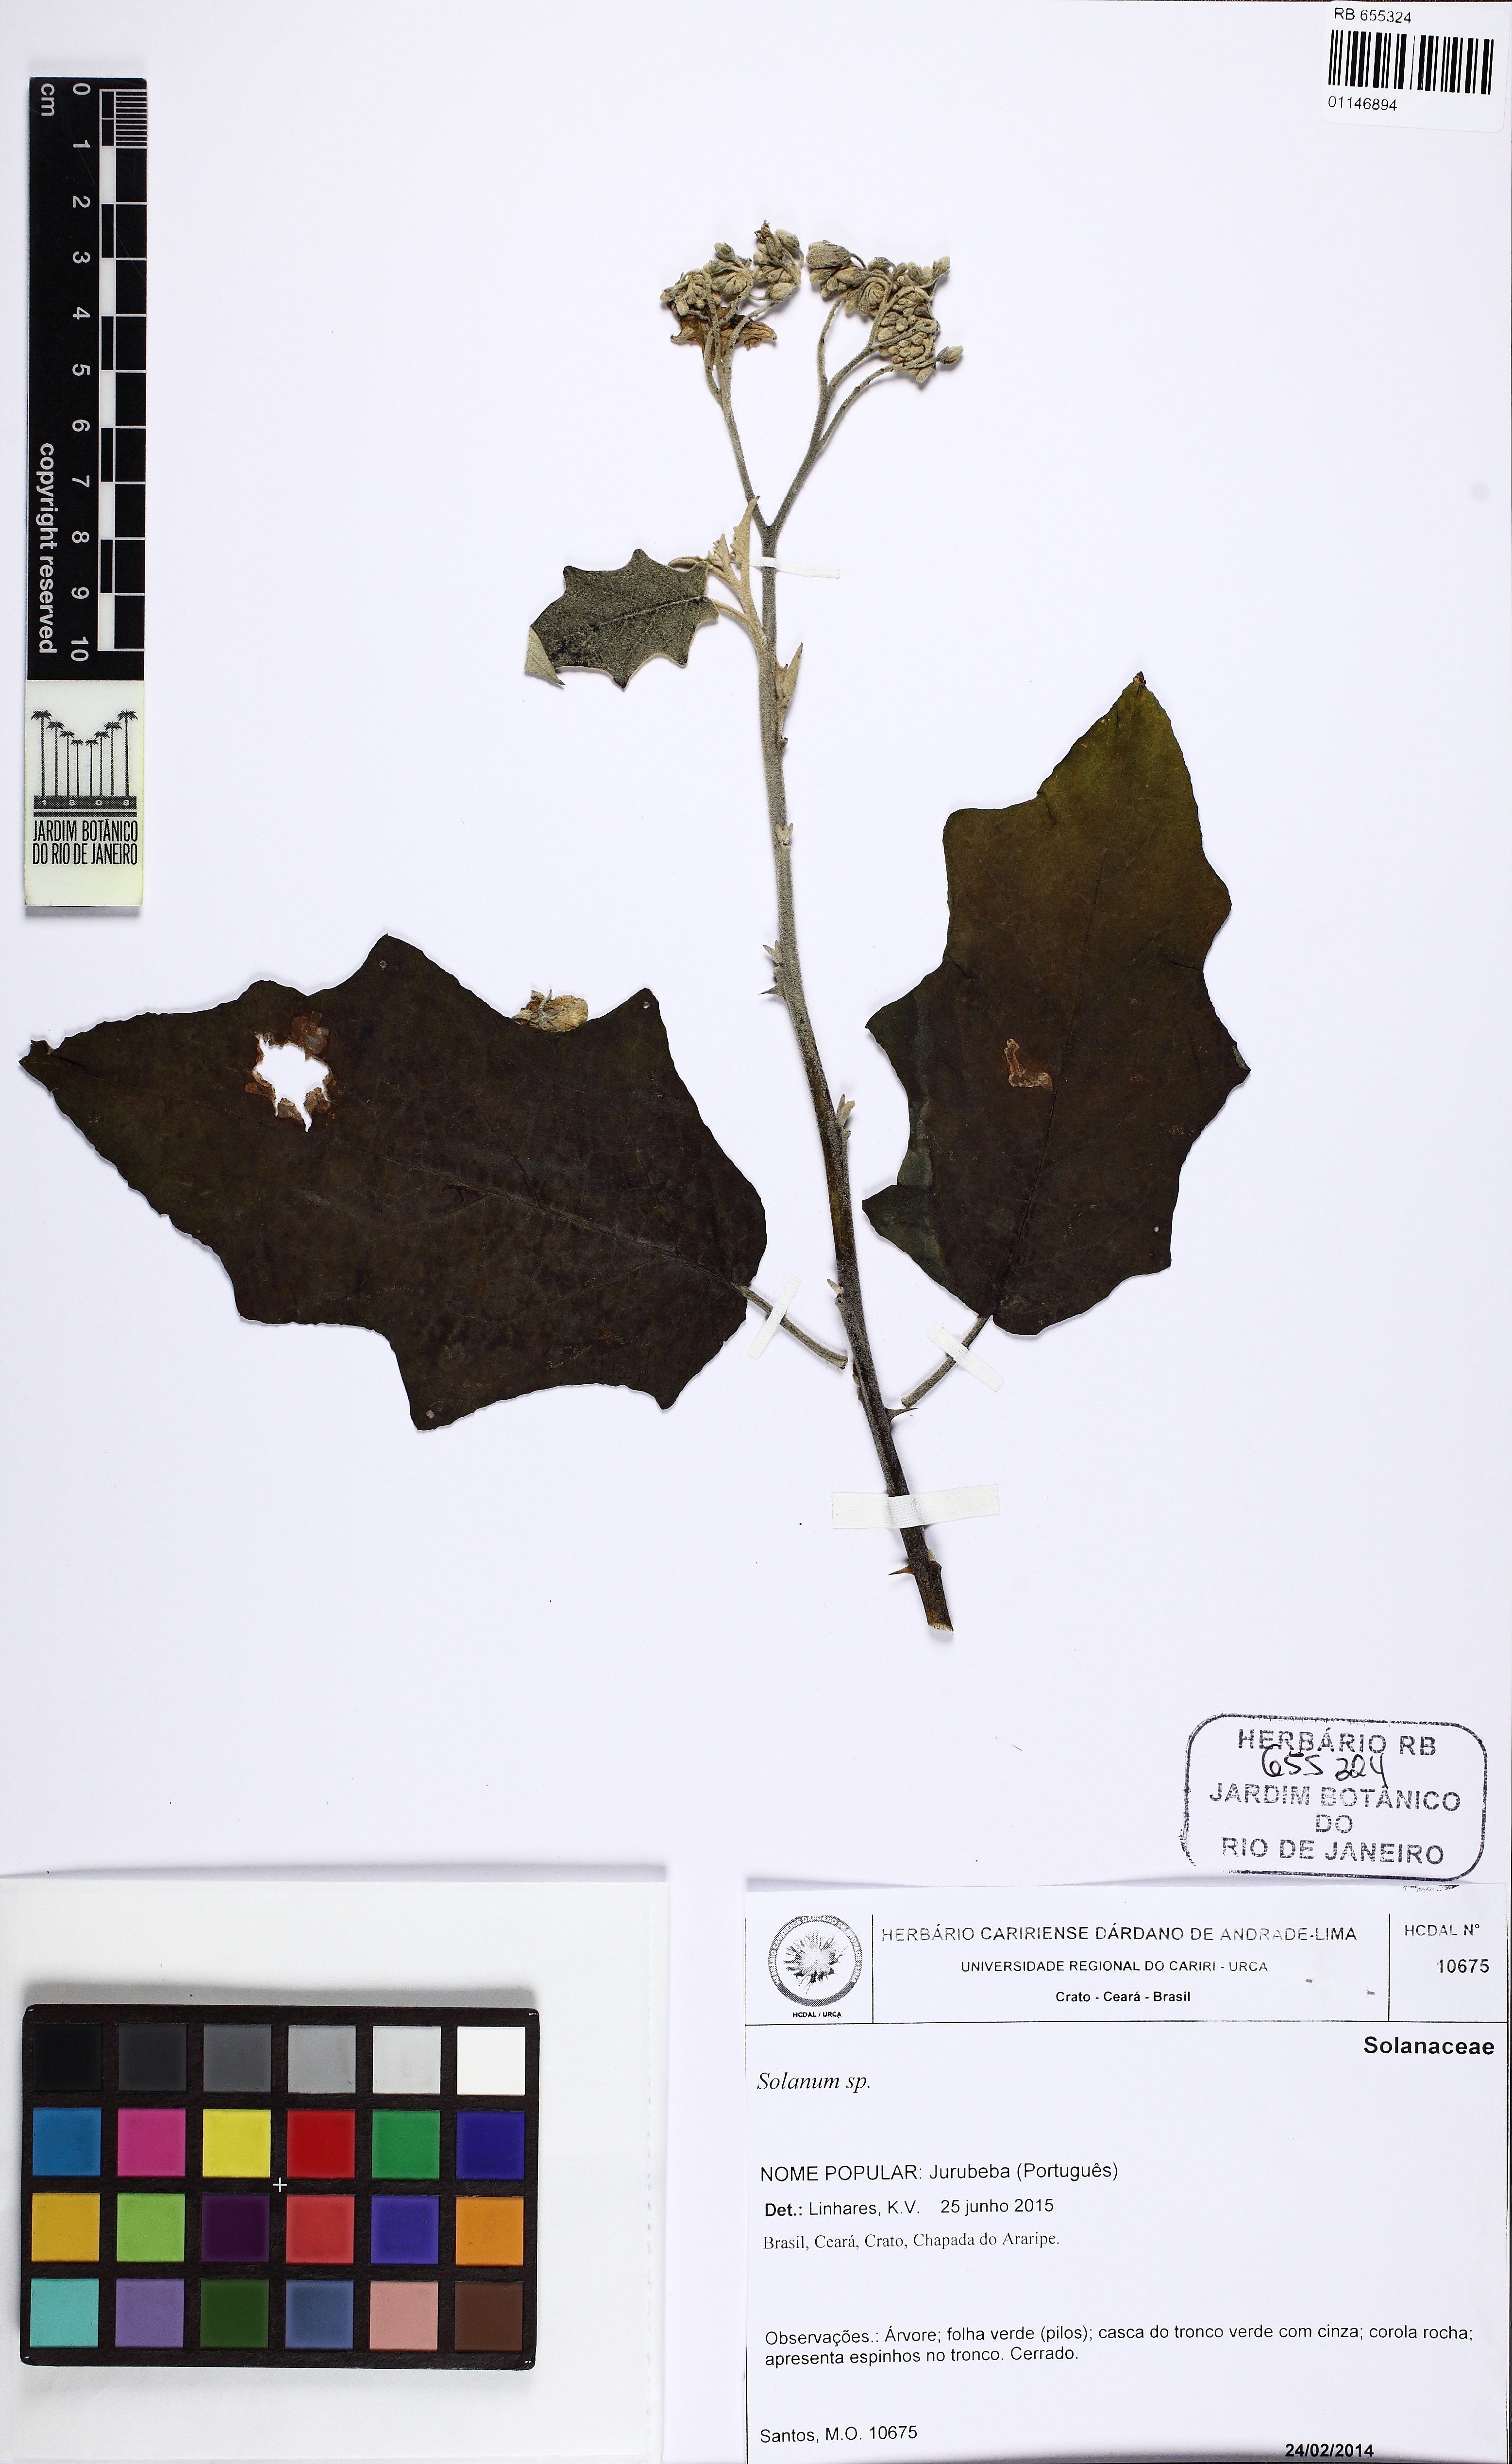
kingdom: Plantae
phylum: Tracheophyta
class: Magnoliopsida
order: Solanales
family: Solanaceae
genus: Solanum
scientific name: Solanum paniculatum
